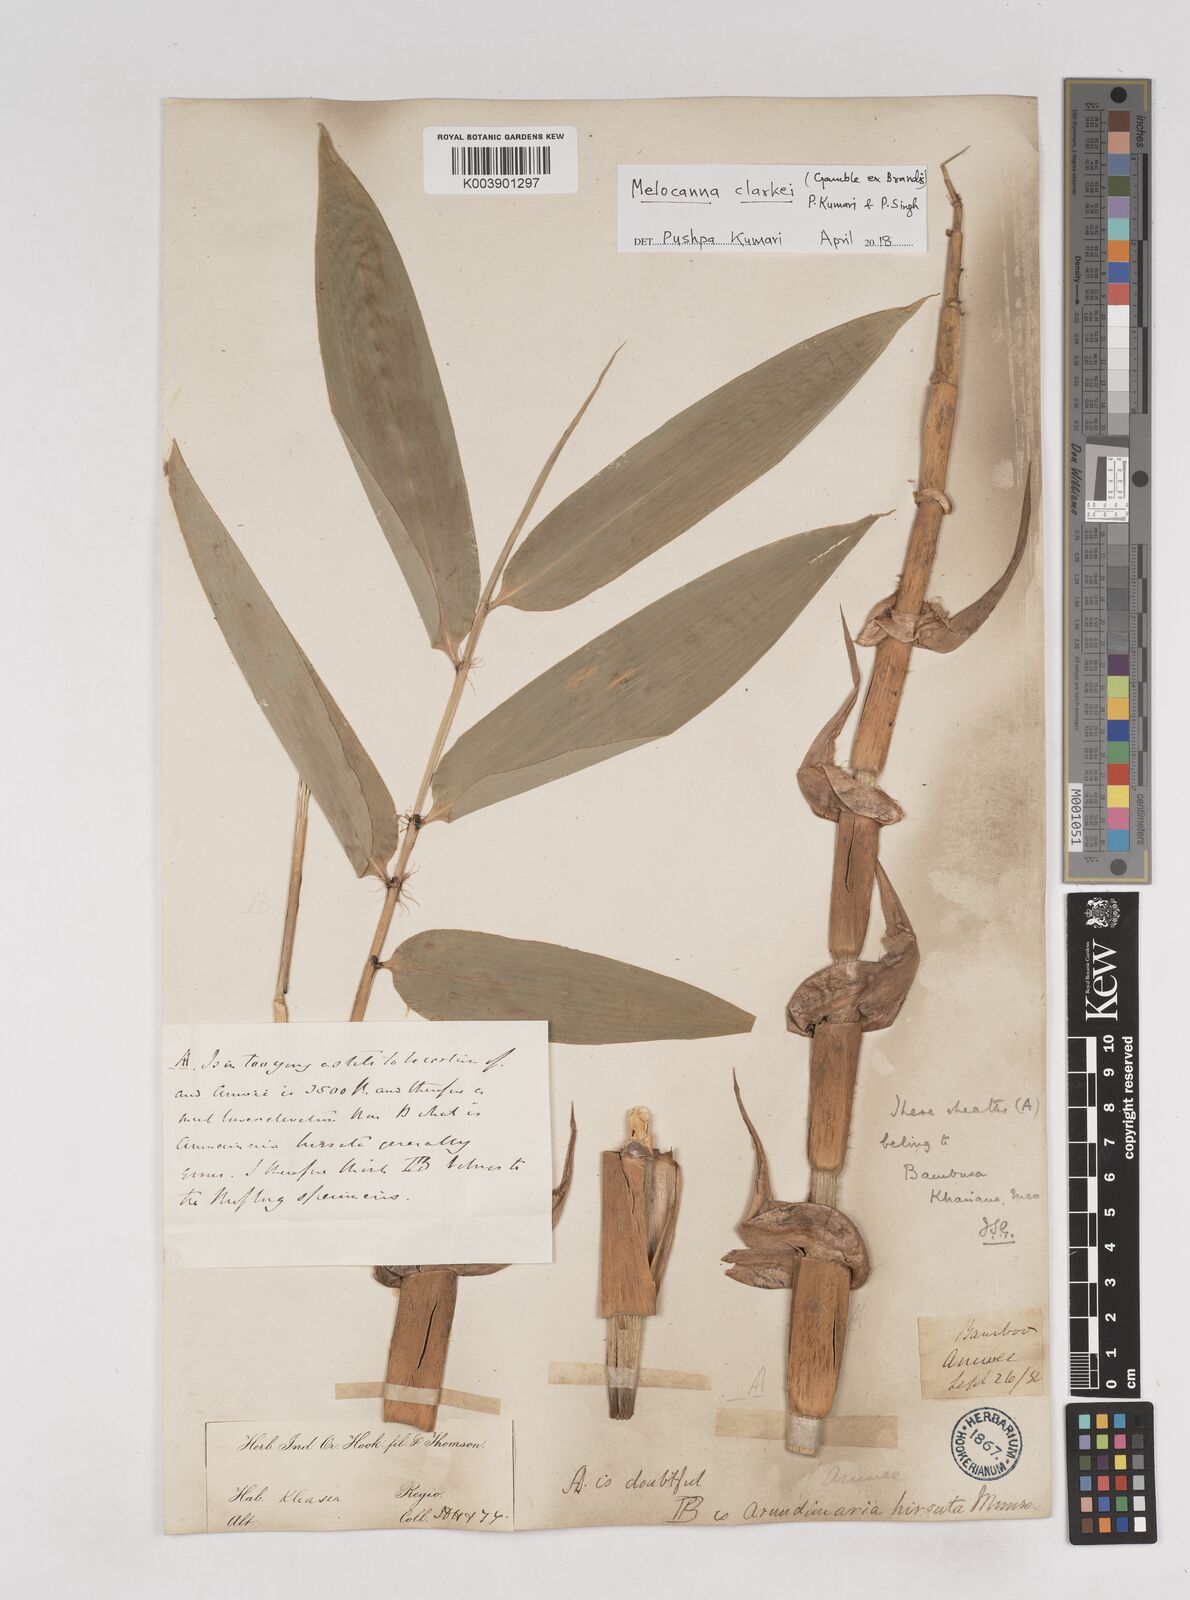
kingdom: Plantae
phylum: Tracheophyta
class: Liliopsida
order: Poales
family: Poaceae
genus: Melocanna
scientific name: Melocanna clarkei
